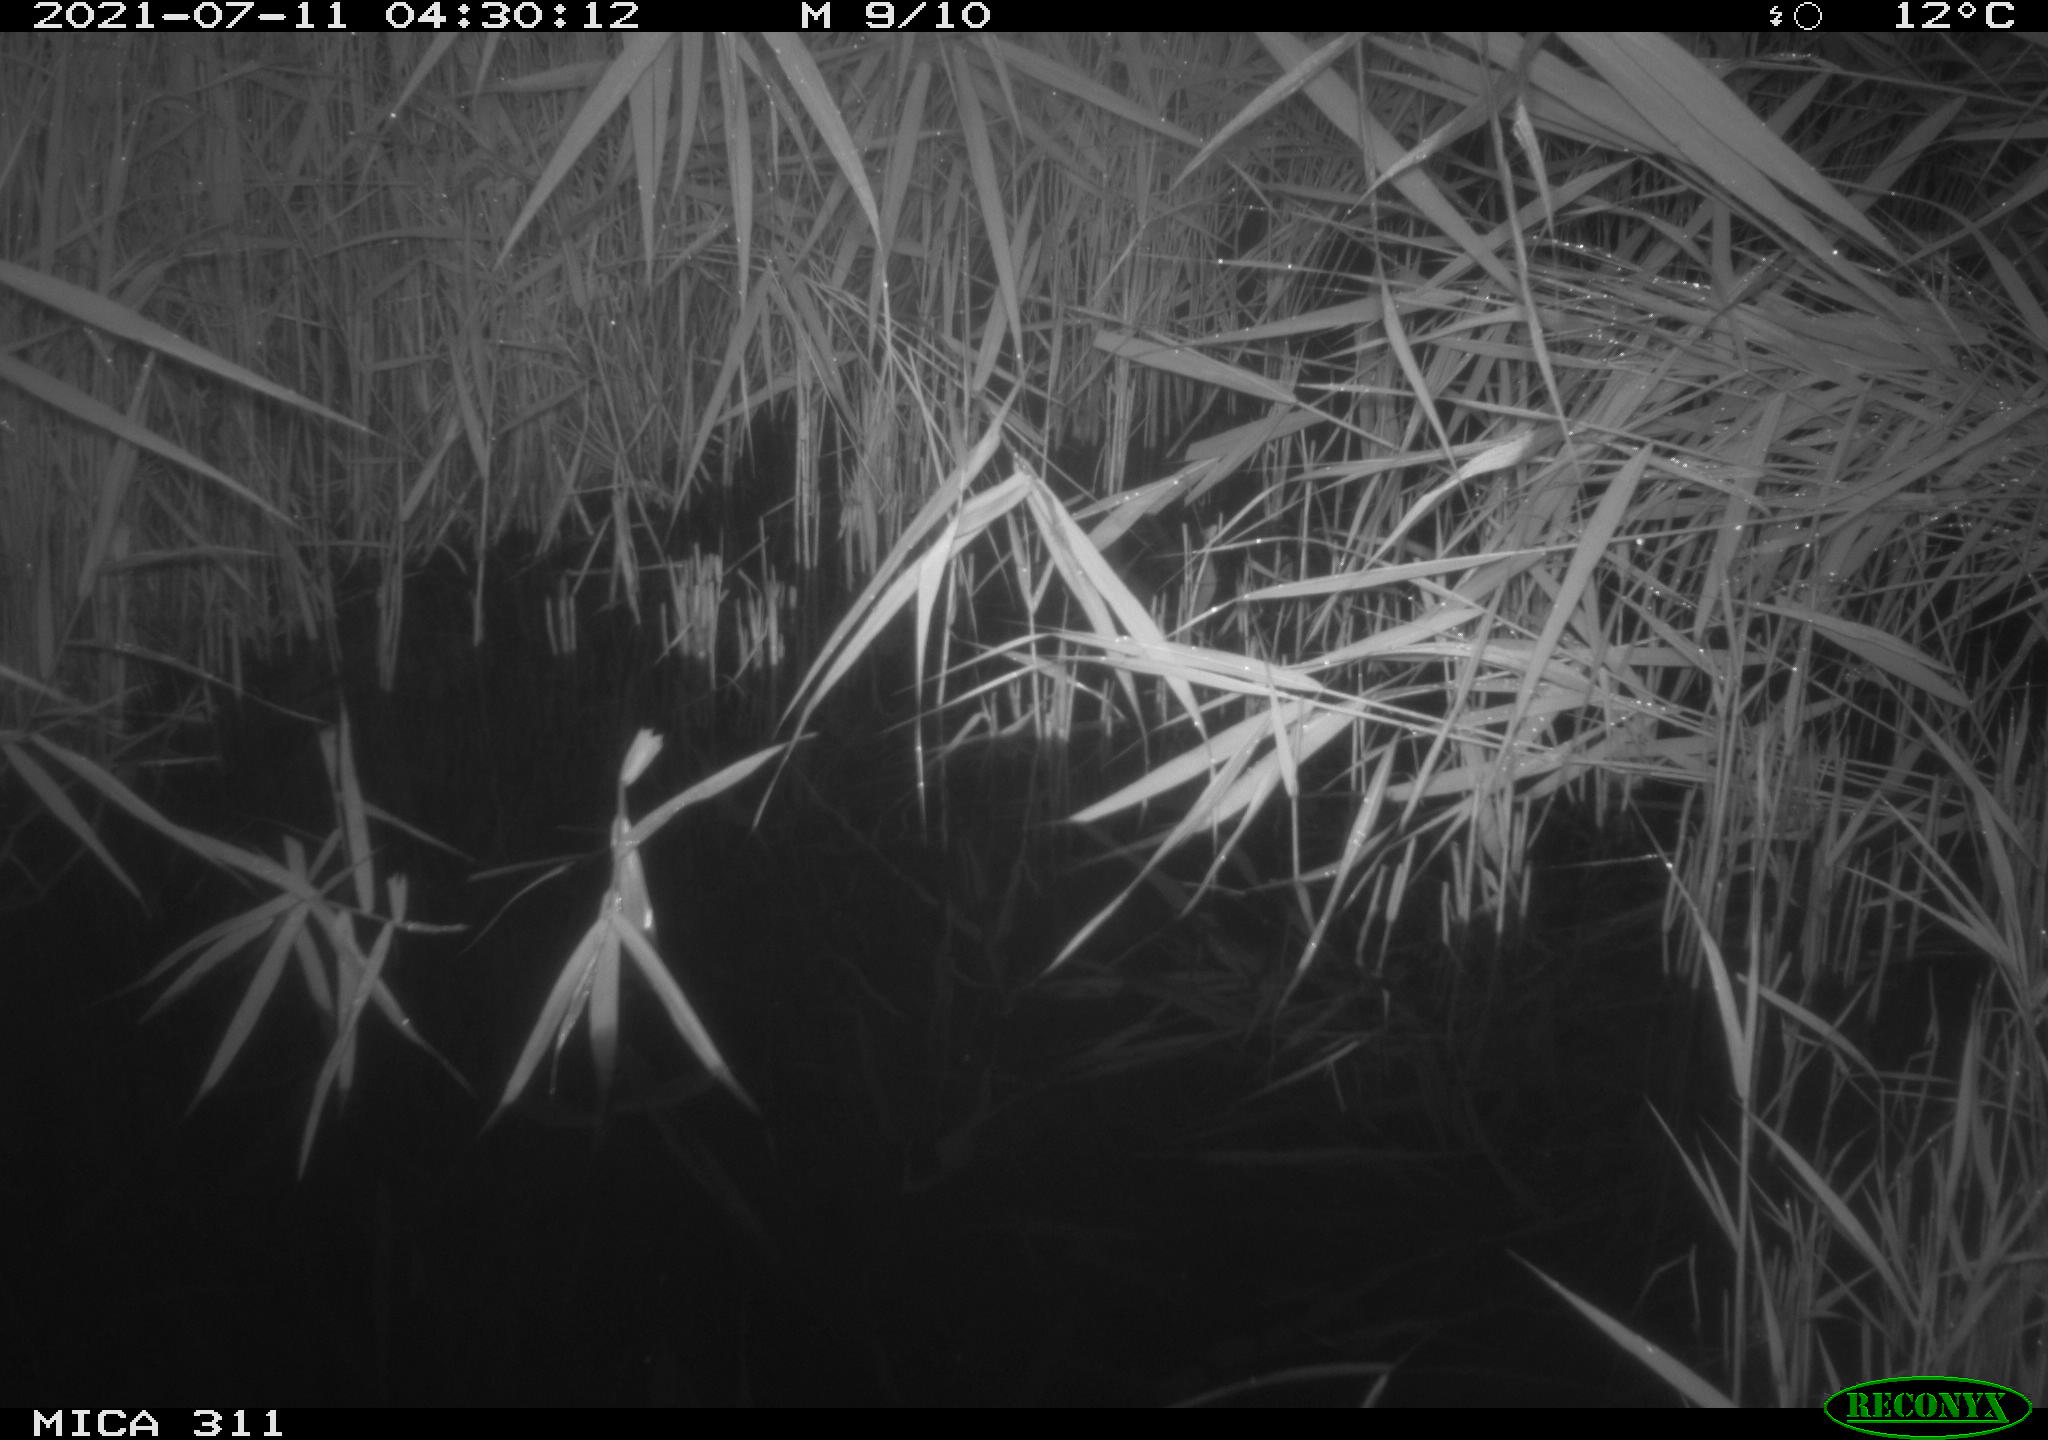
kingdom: Animalia
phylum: Chordata
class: Mammalia
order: Rodentia
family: Muridae
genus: Rattus
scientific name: Rattus norvegicus
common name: Brown rat
